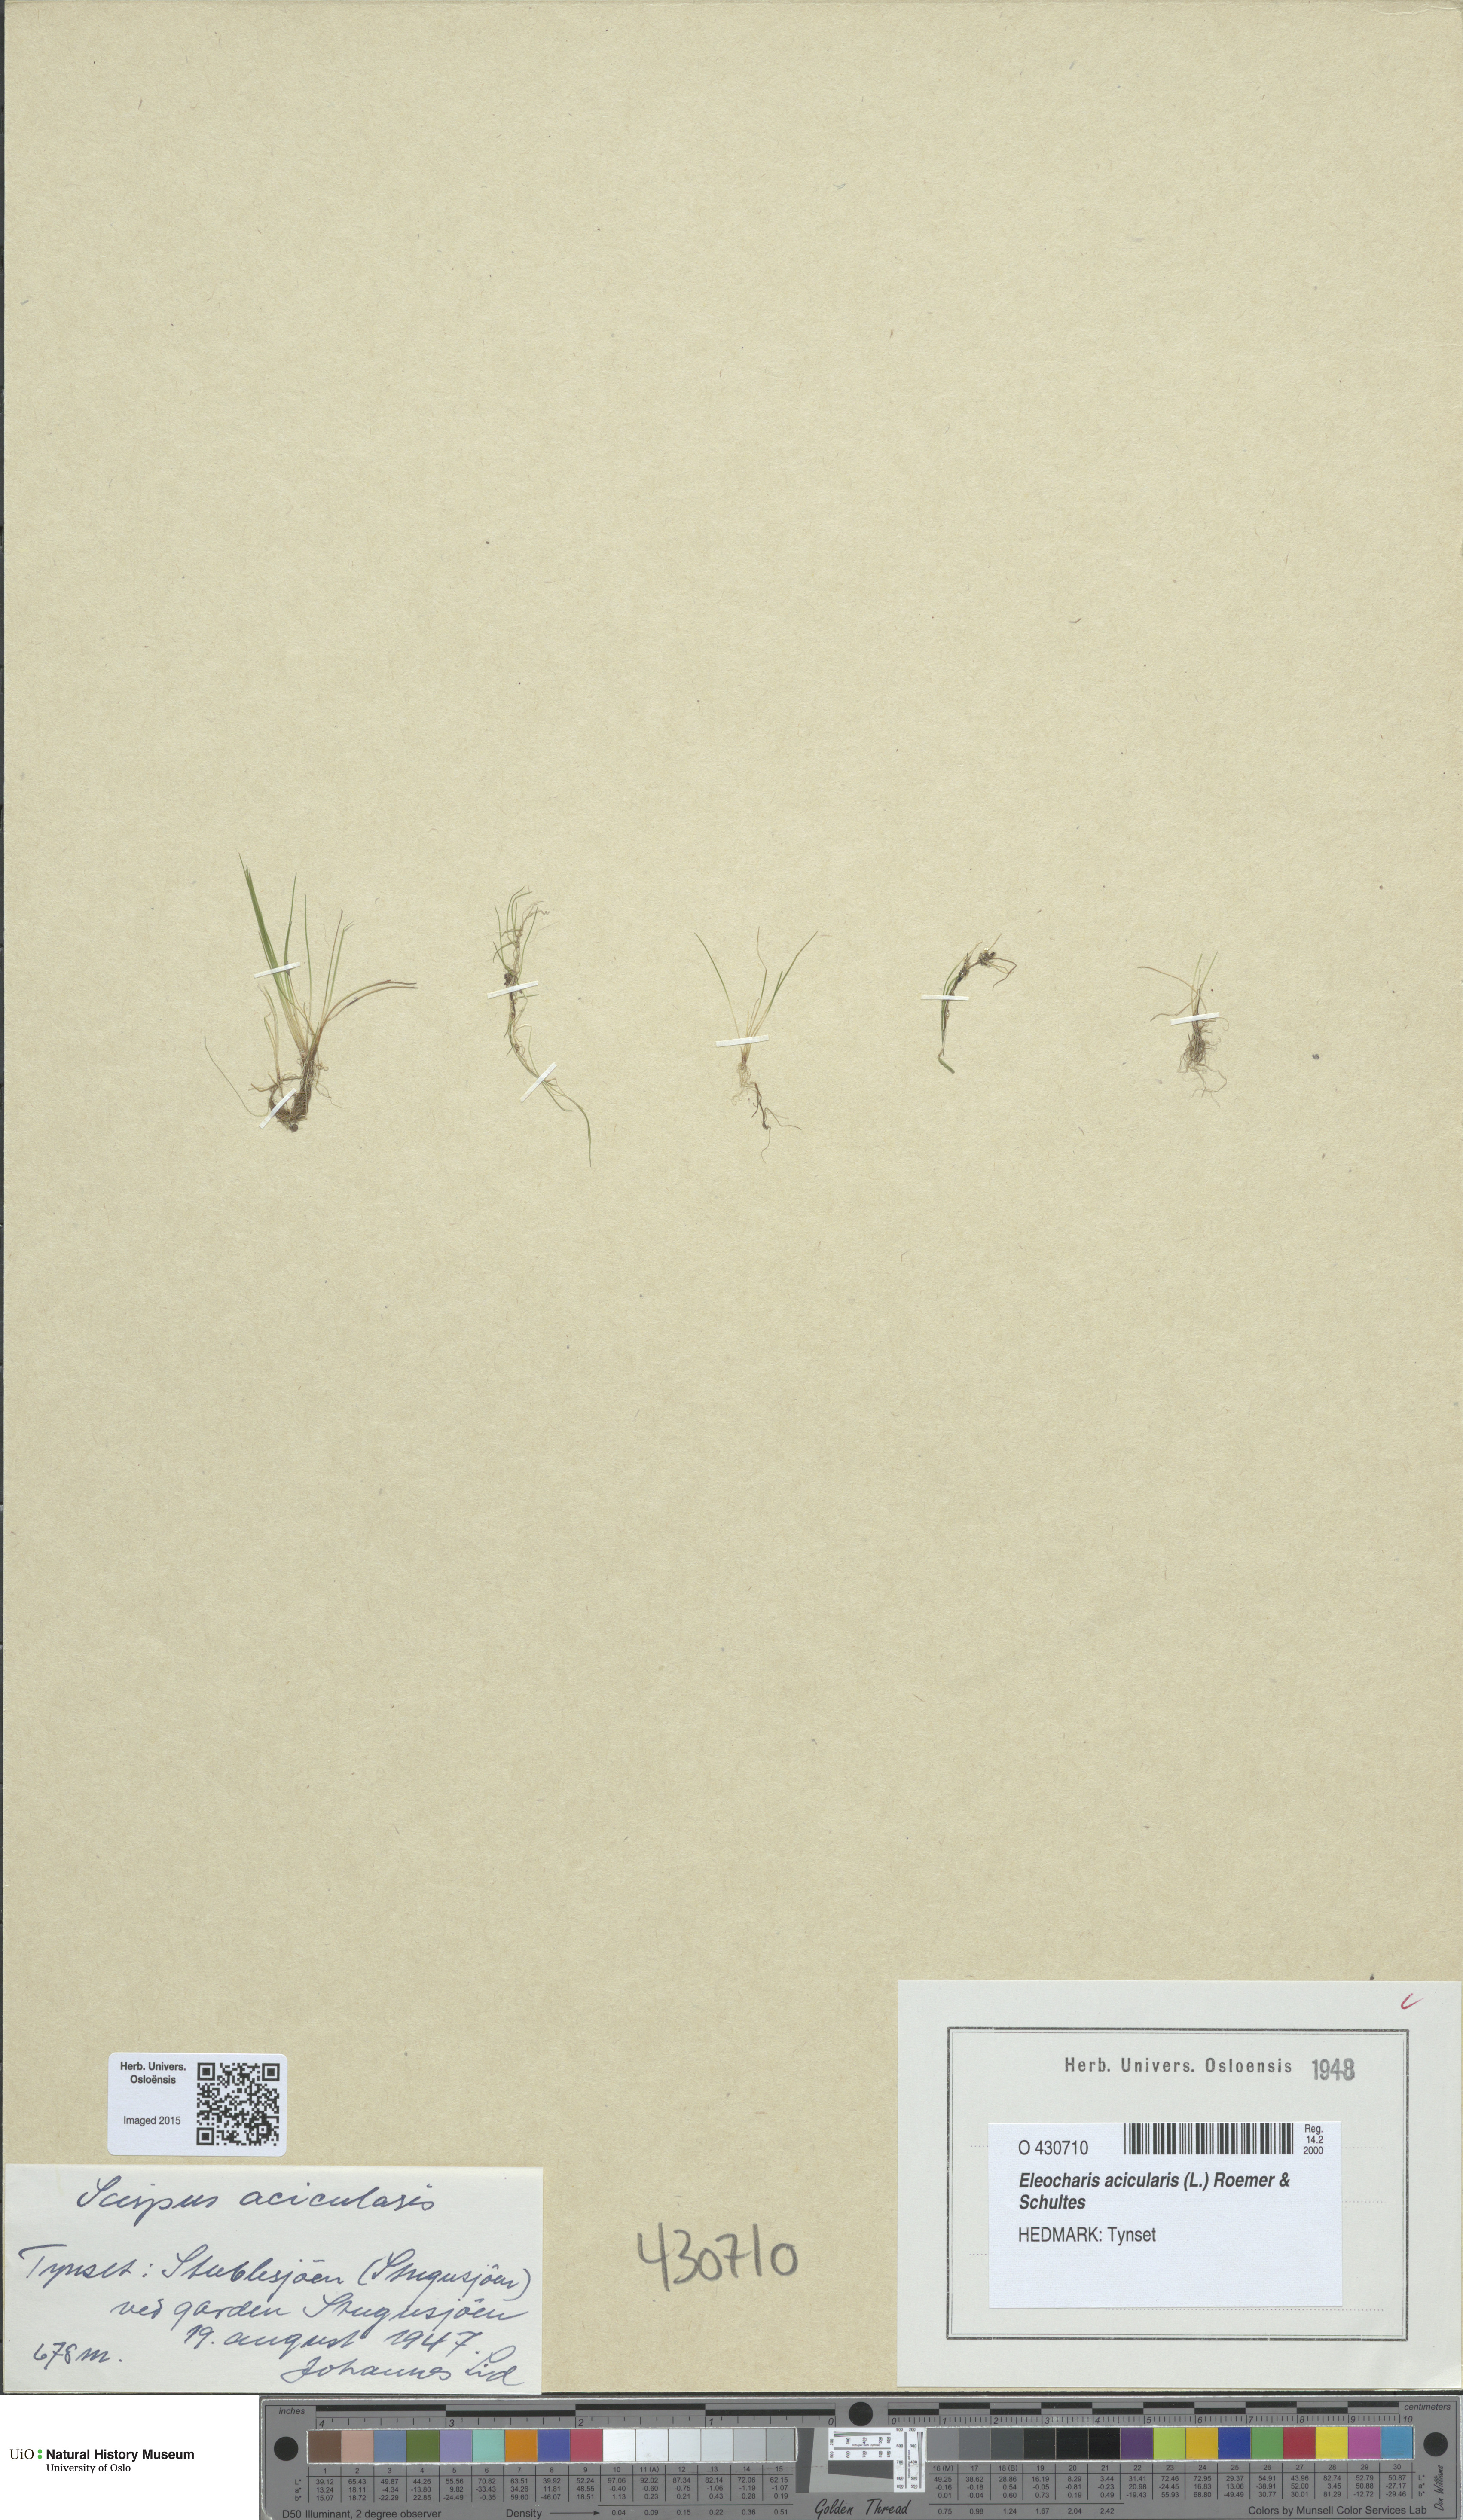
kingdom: Plantae
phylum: Tracheophyta
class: Liliopsida
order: Poales
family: Cyperaceae
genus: Eleocharis
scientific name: Eleocharis acicularis
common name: Needle spike-rush
